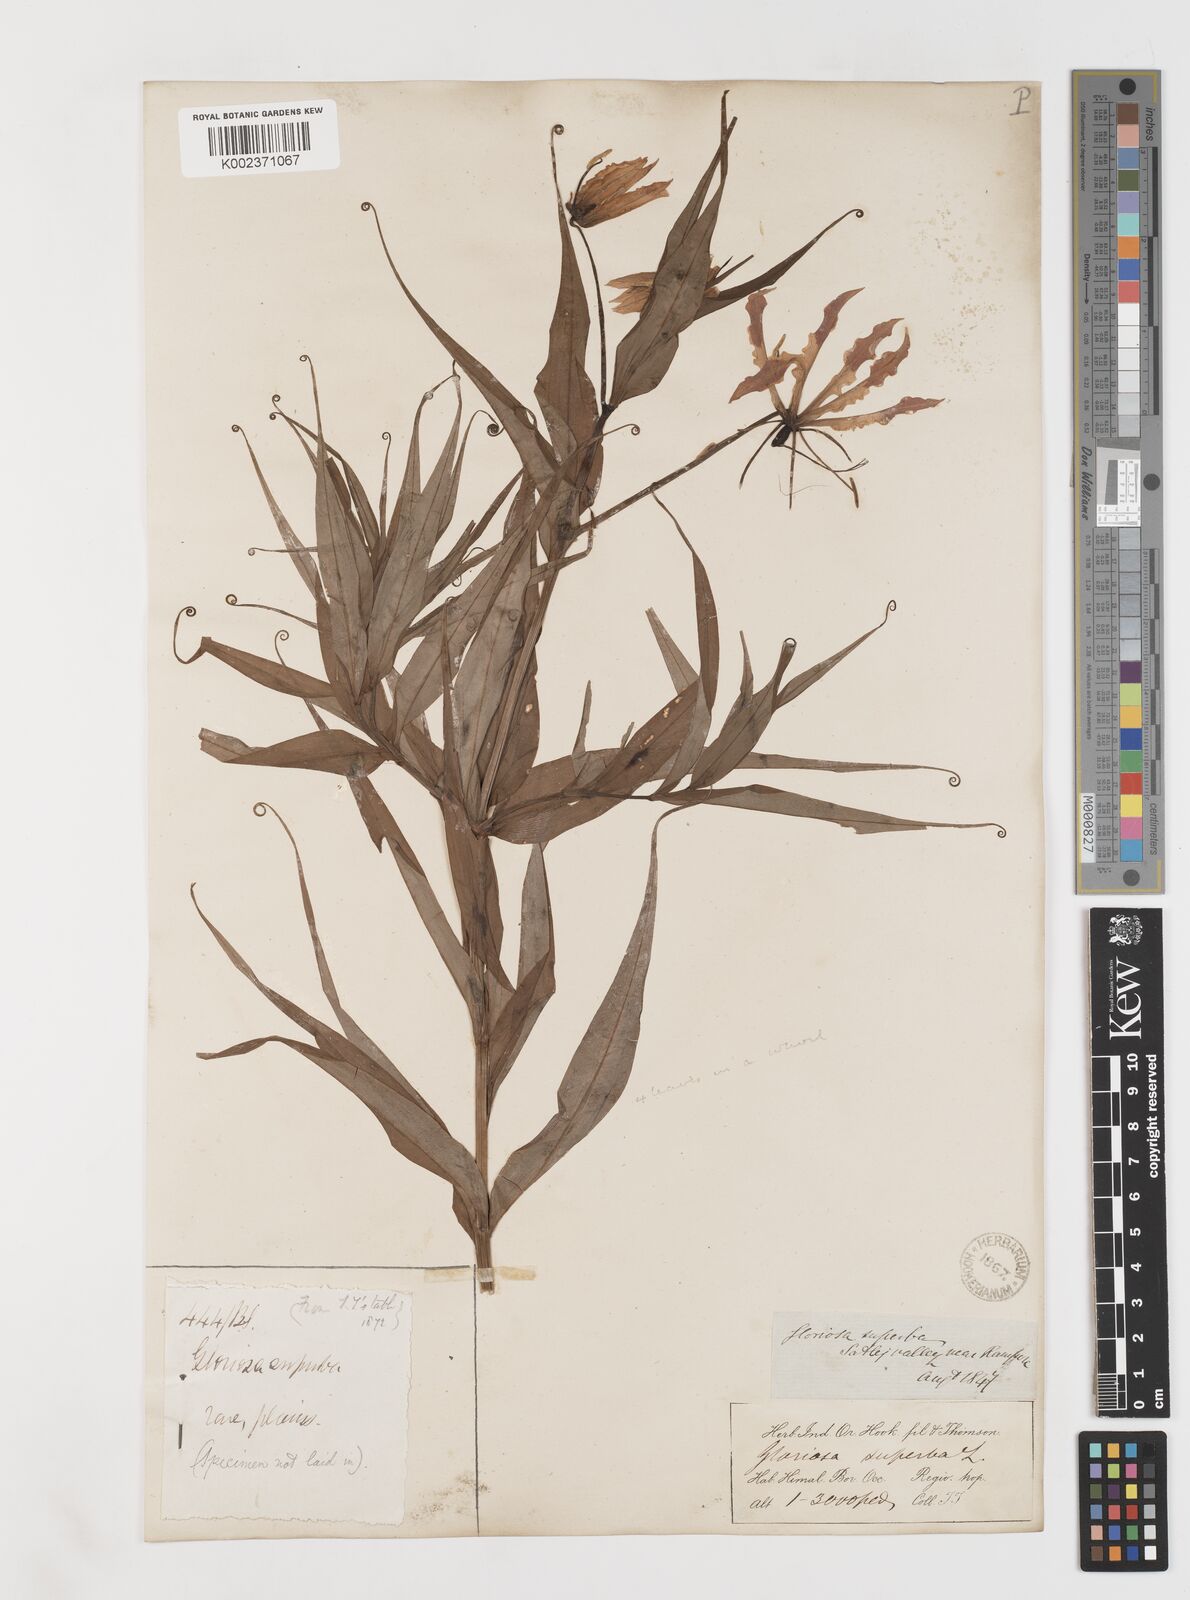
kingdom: Plantae
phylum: Tracheophyta
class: Liliopsida
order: Liliales
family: Colchicaceae
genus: Gloriosa
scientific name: Gloriosa superba
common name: Flame lily
